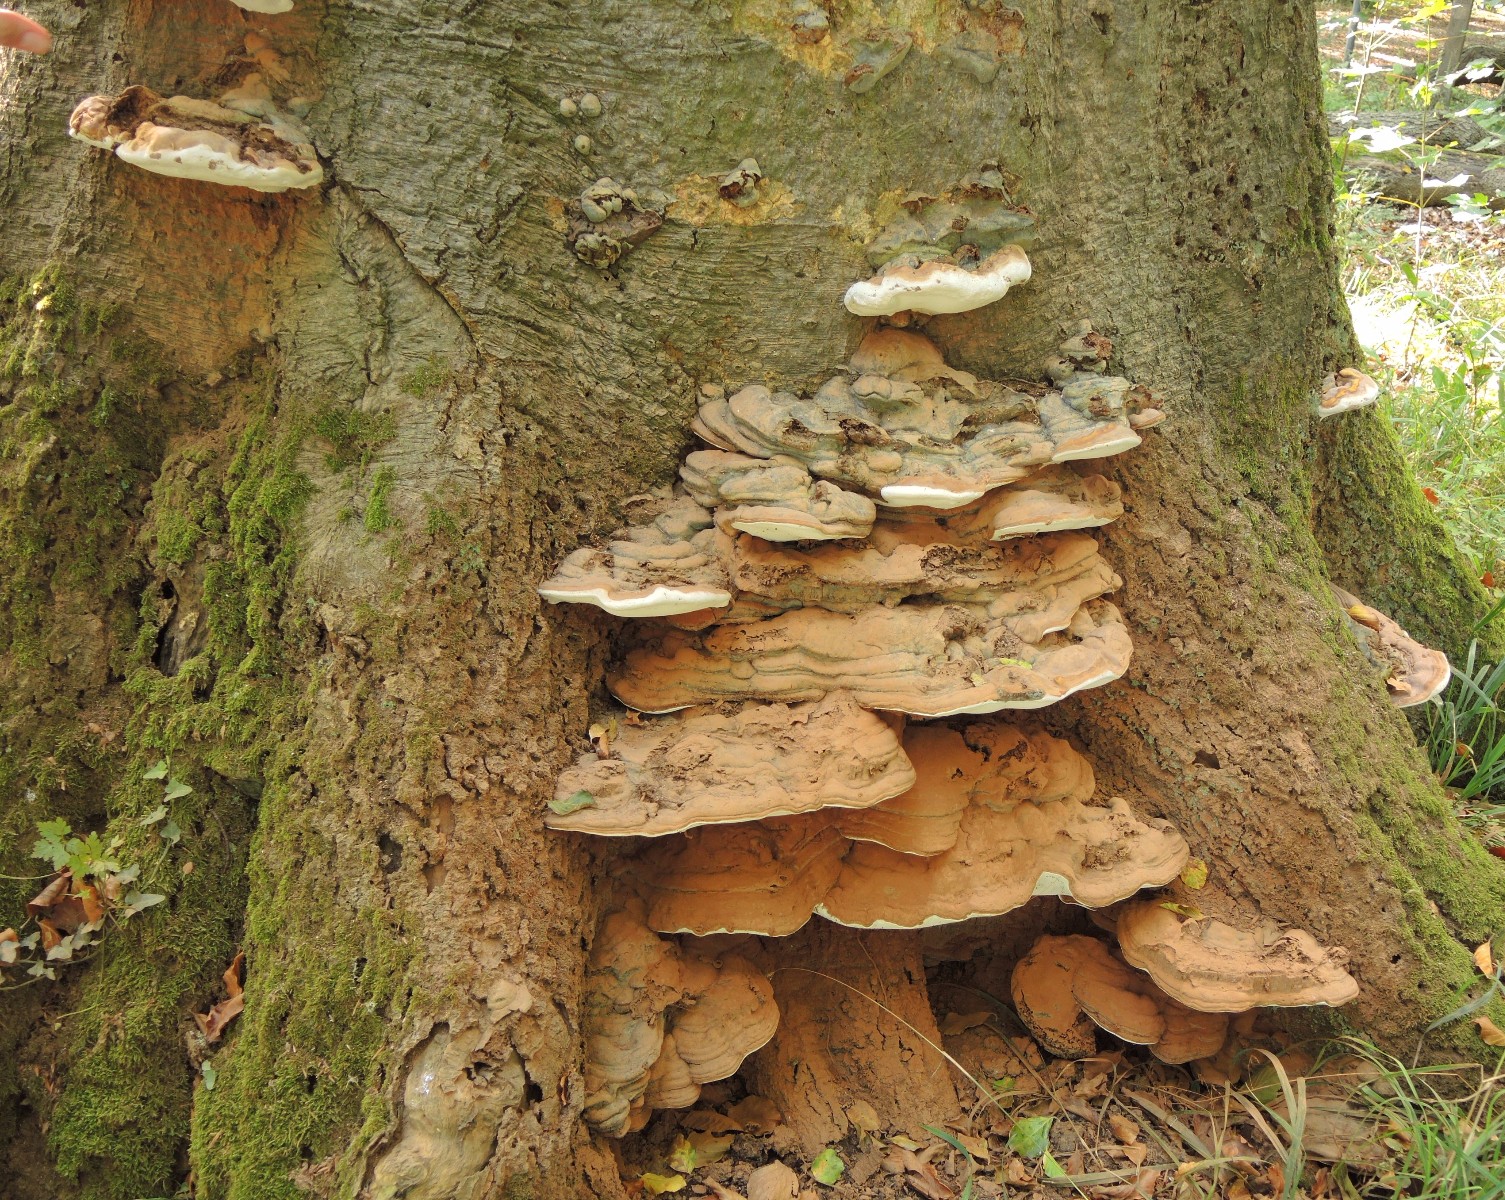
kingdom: Fungi
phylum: Basidiomycota
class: Agaricomycetes
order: Polyporales
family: Polyporaceae
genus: Ganoderma
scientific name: Ganoderma pfeifferi
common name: kobberrød lakporesvamp
